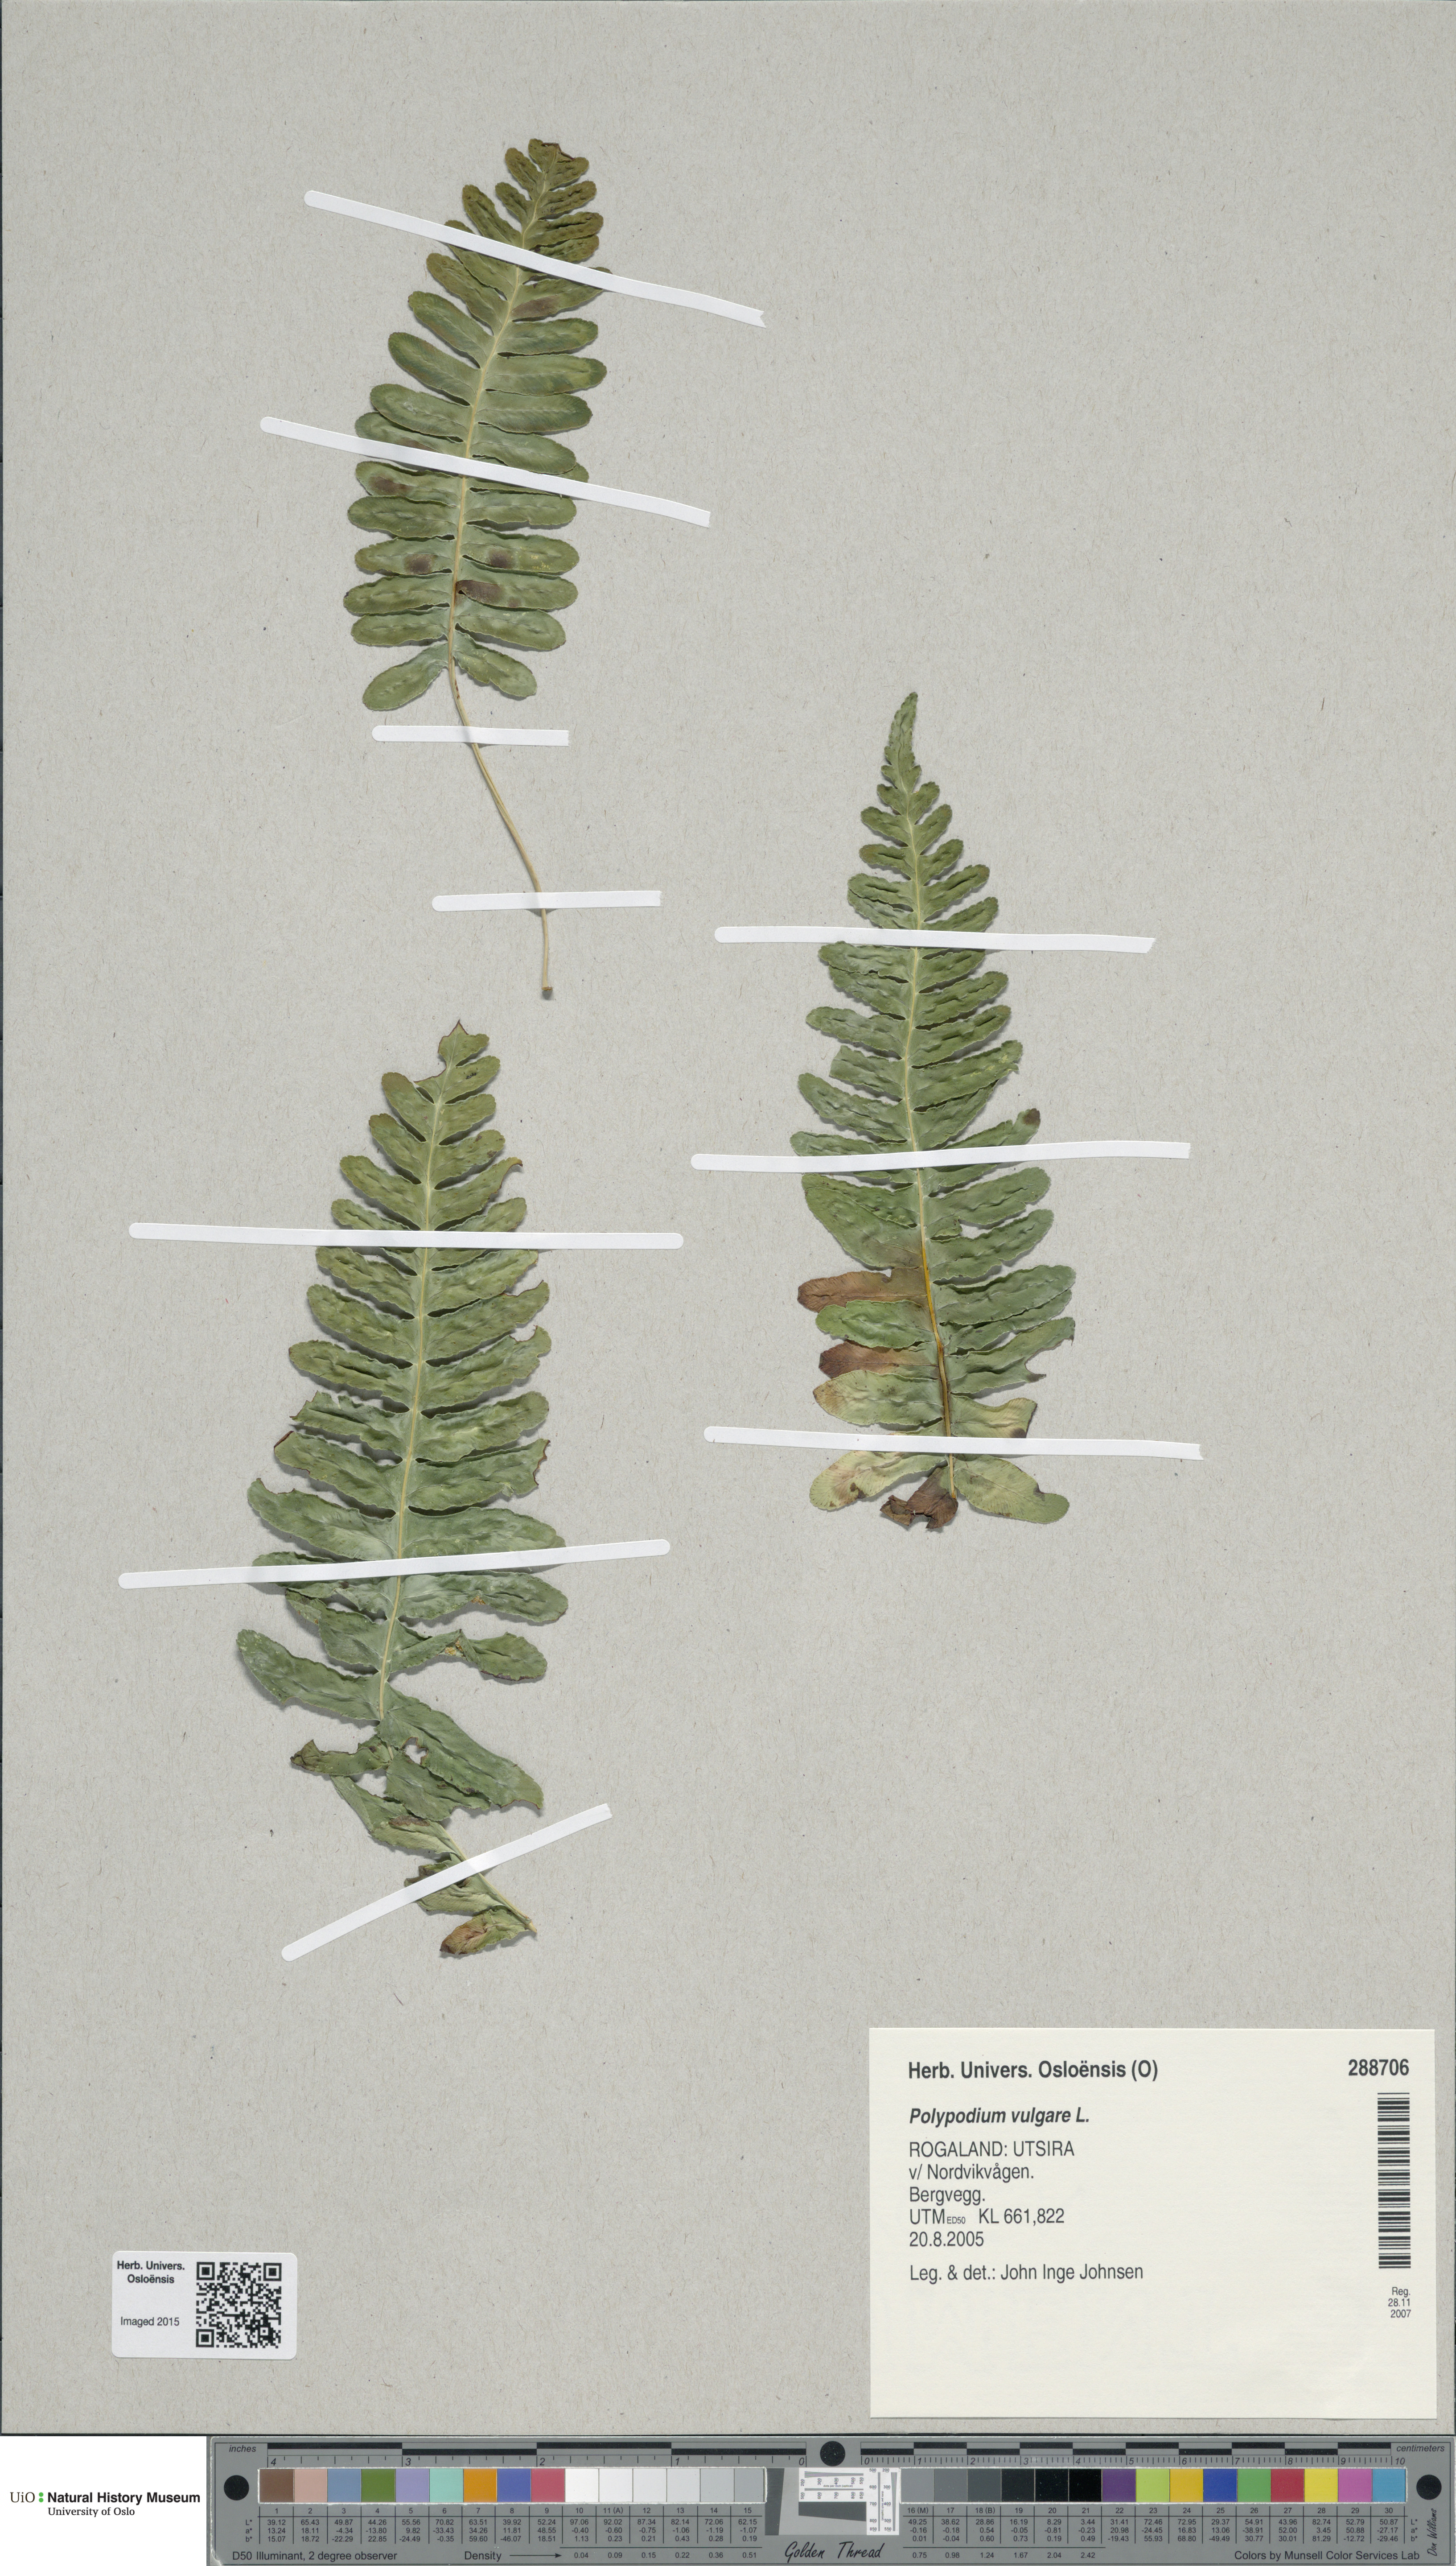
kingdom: Plantae
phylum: Tracheophyta
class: Polypodiopsida
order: Polypodiales
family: Polypodiaceae
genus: Polypodium
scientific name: Polypodium vulgare
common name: Common polypody
